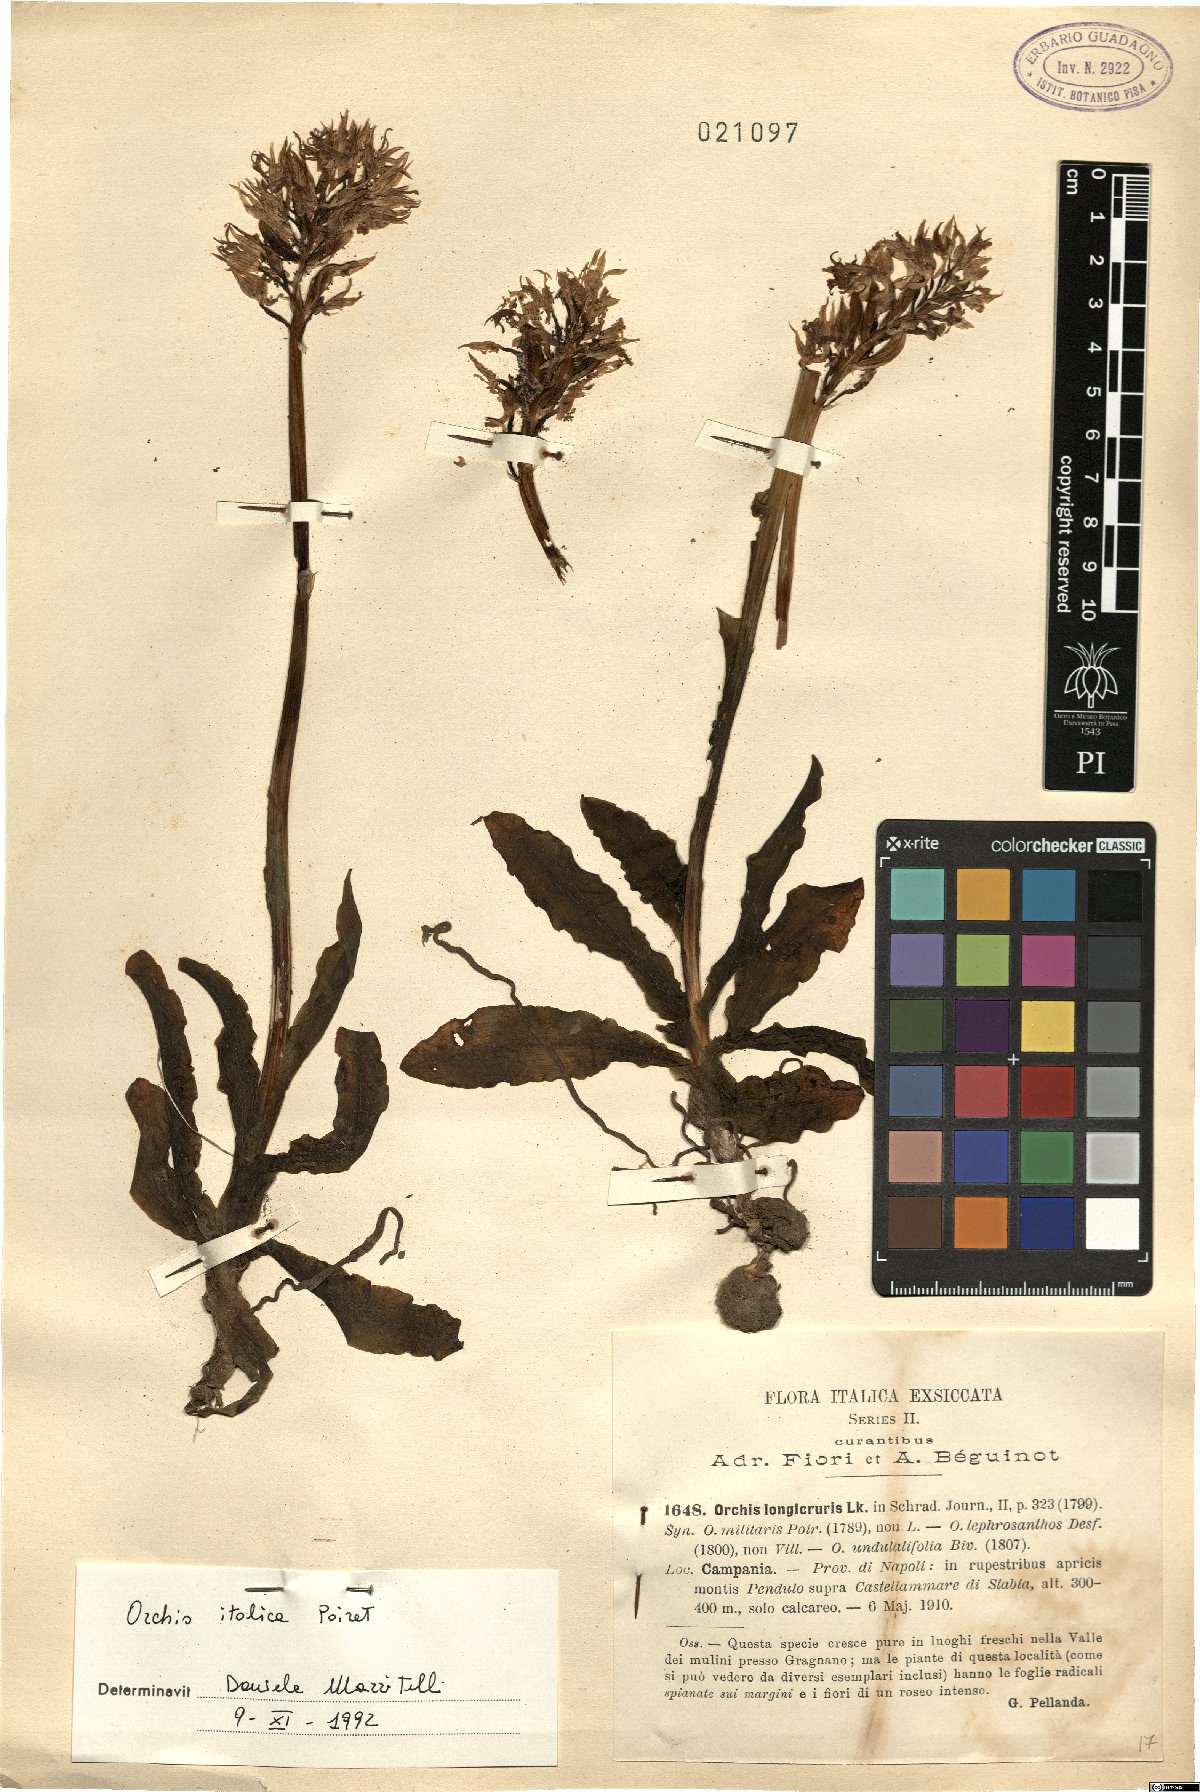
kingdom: Plantae
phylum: Tracheophyta
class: Liliopsida
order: Asparagales
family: Orchidaceae
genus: Orchis
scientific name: Orchis italica
